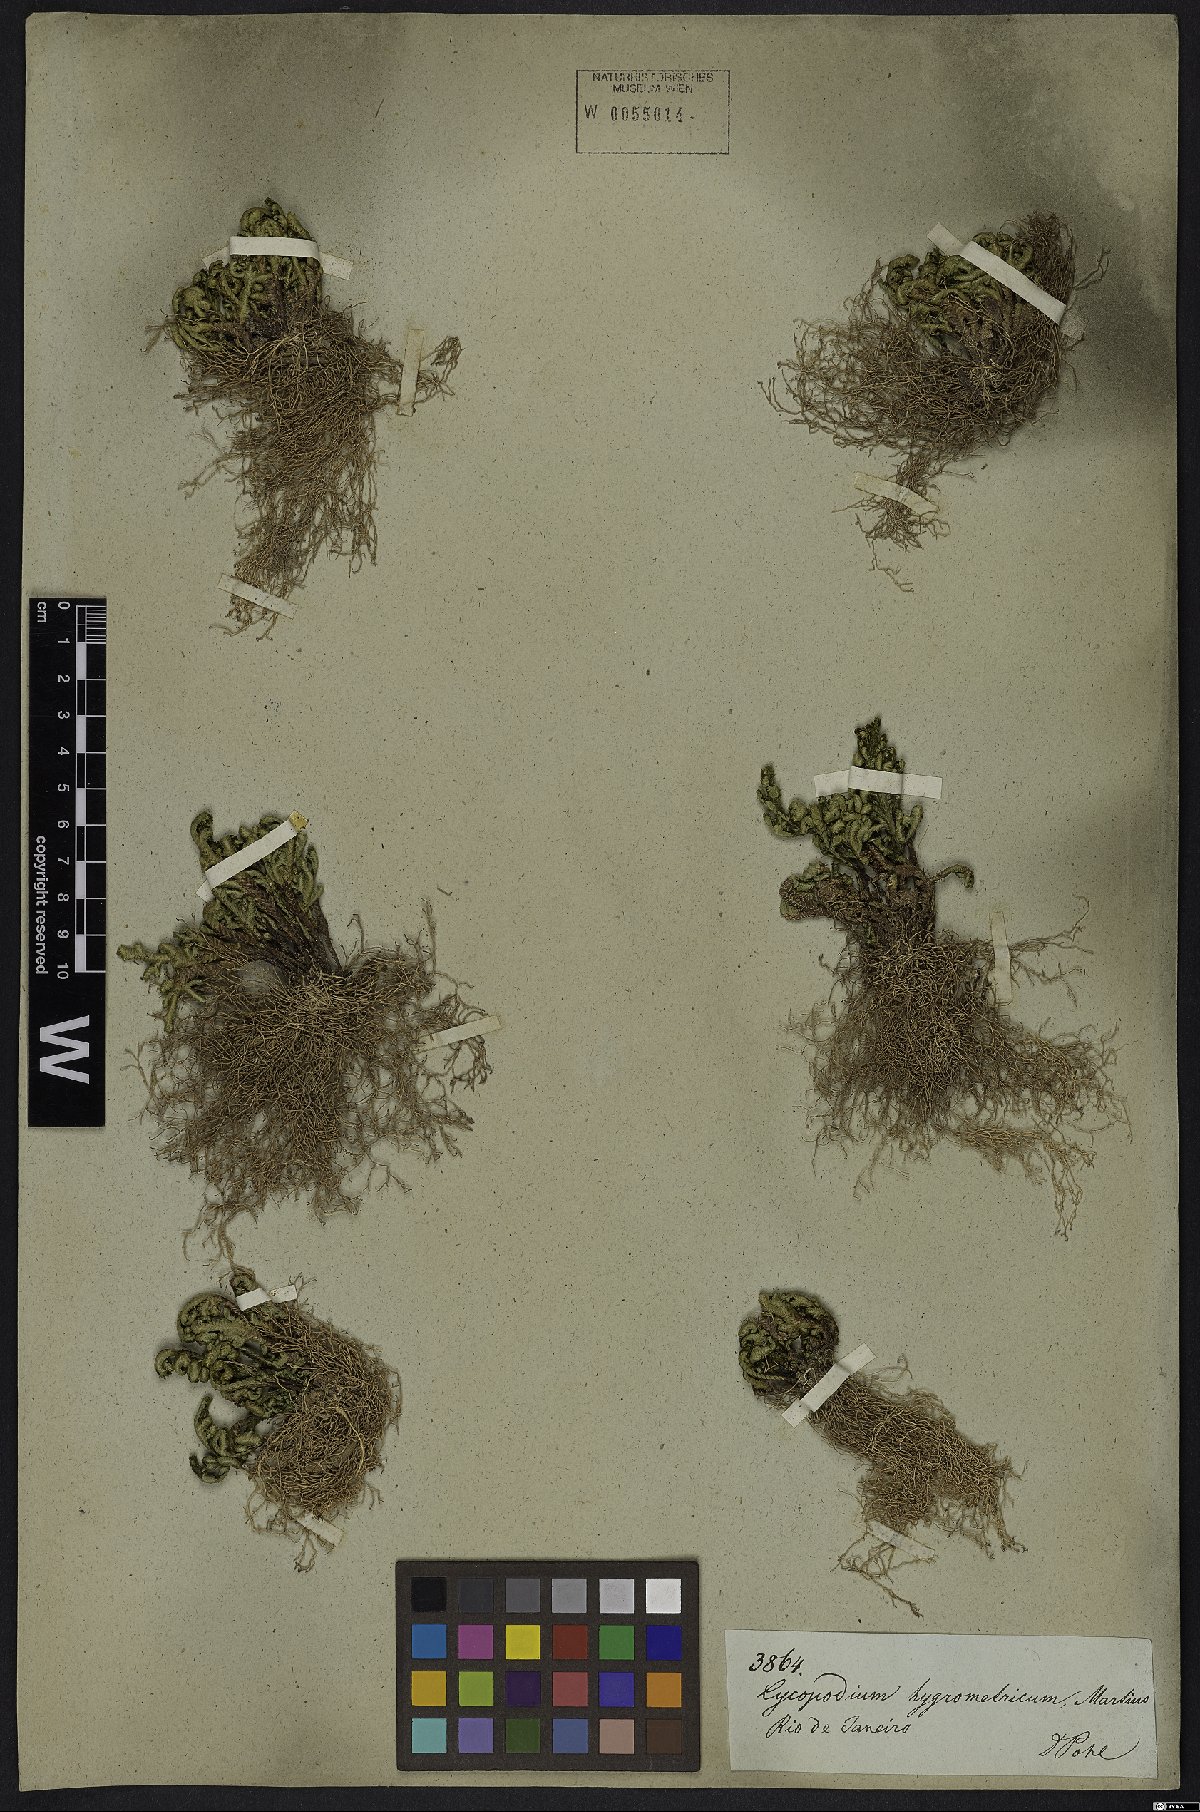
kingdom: Plantae
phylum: Tracheophyta
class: Lycopodiopsida
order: Selaginellales
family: Selaginellaceae
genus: Selaginella
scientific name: Selaginella convoluta
